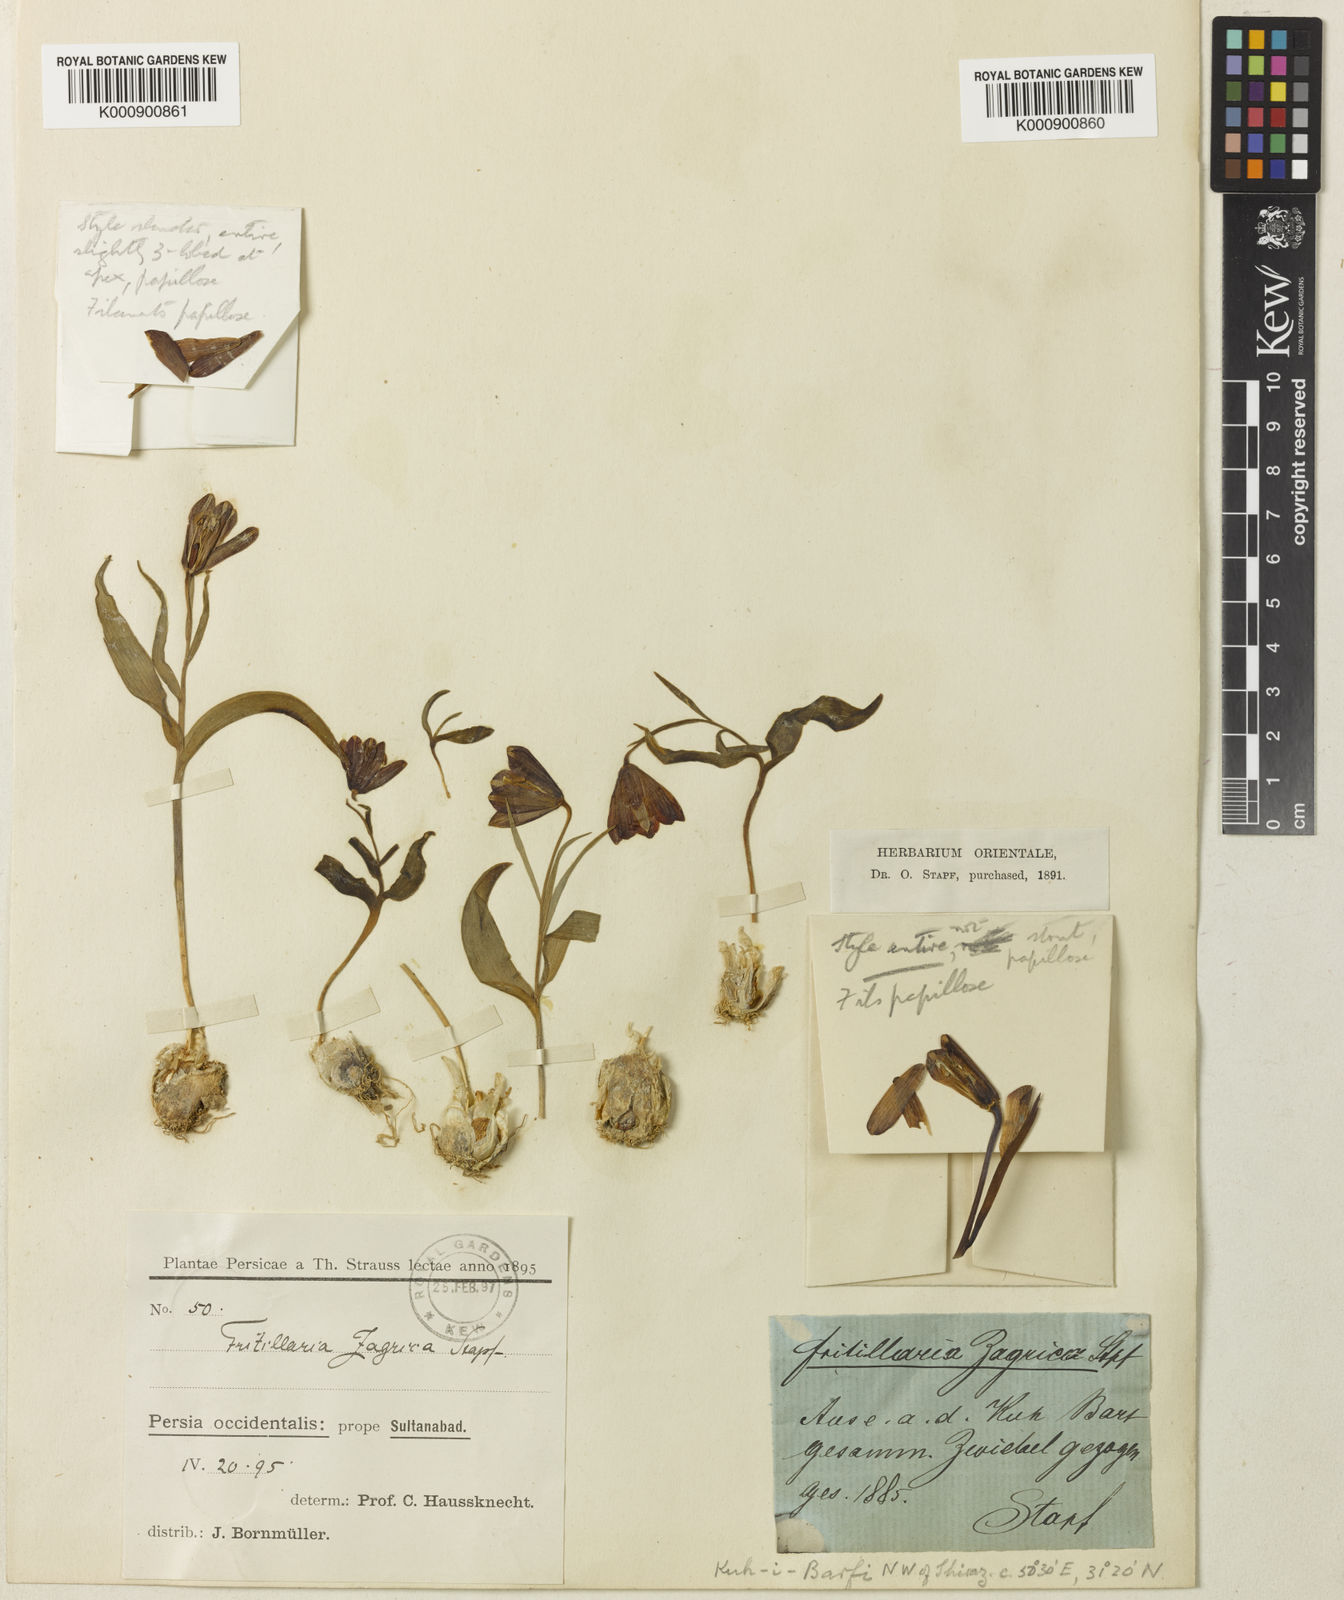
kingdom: Plantae
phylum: Tracheophyta
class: Liliopsida
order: Liliales
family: Liliaceae
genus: Fritillaria
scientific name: Fritillaria pinardii
